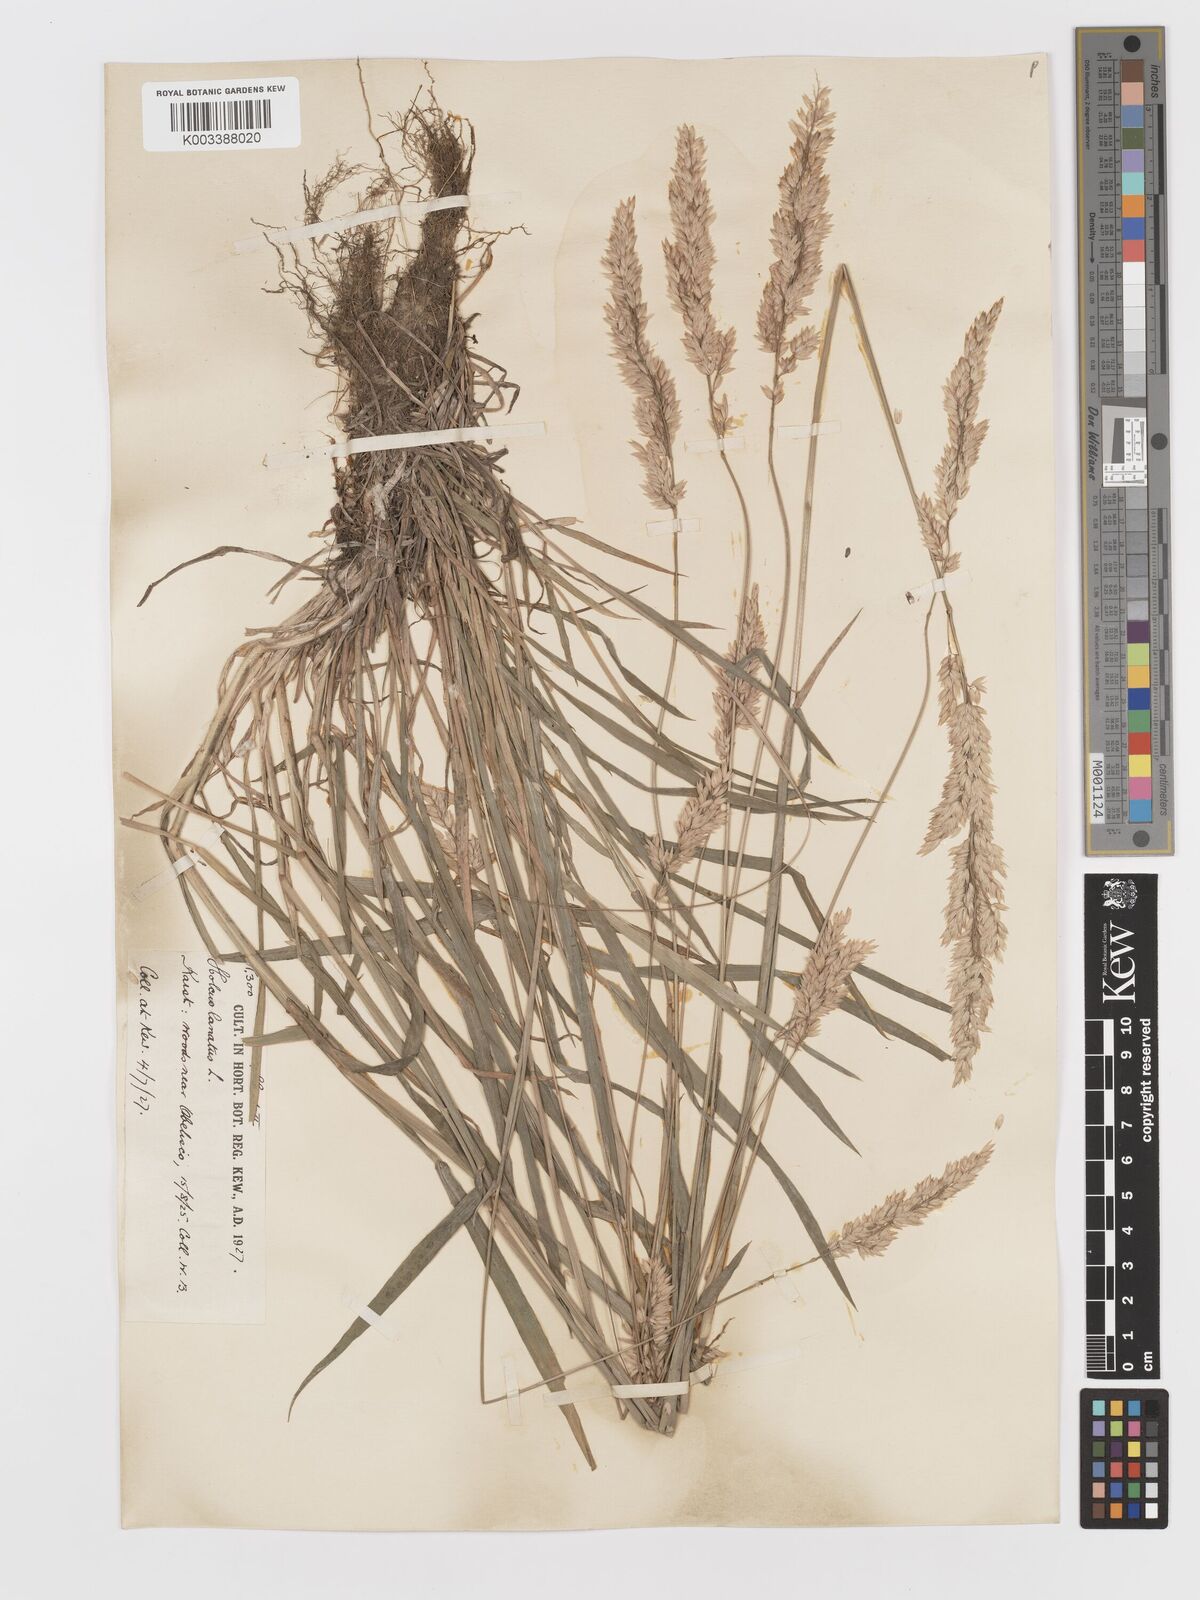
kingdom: Plantae
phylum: Tracheophyta
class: Liliopsida
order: Poales
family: Poaceae
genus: Holcus
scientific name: Holcus lanatus
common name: Yorkshire-fog
